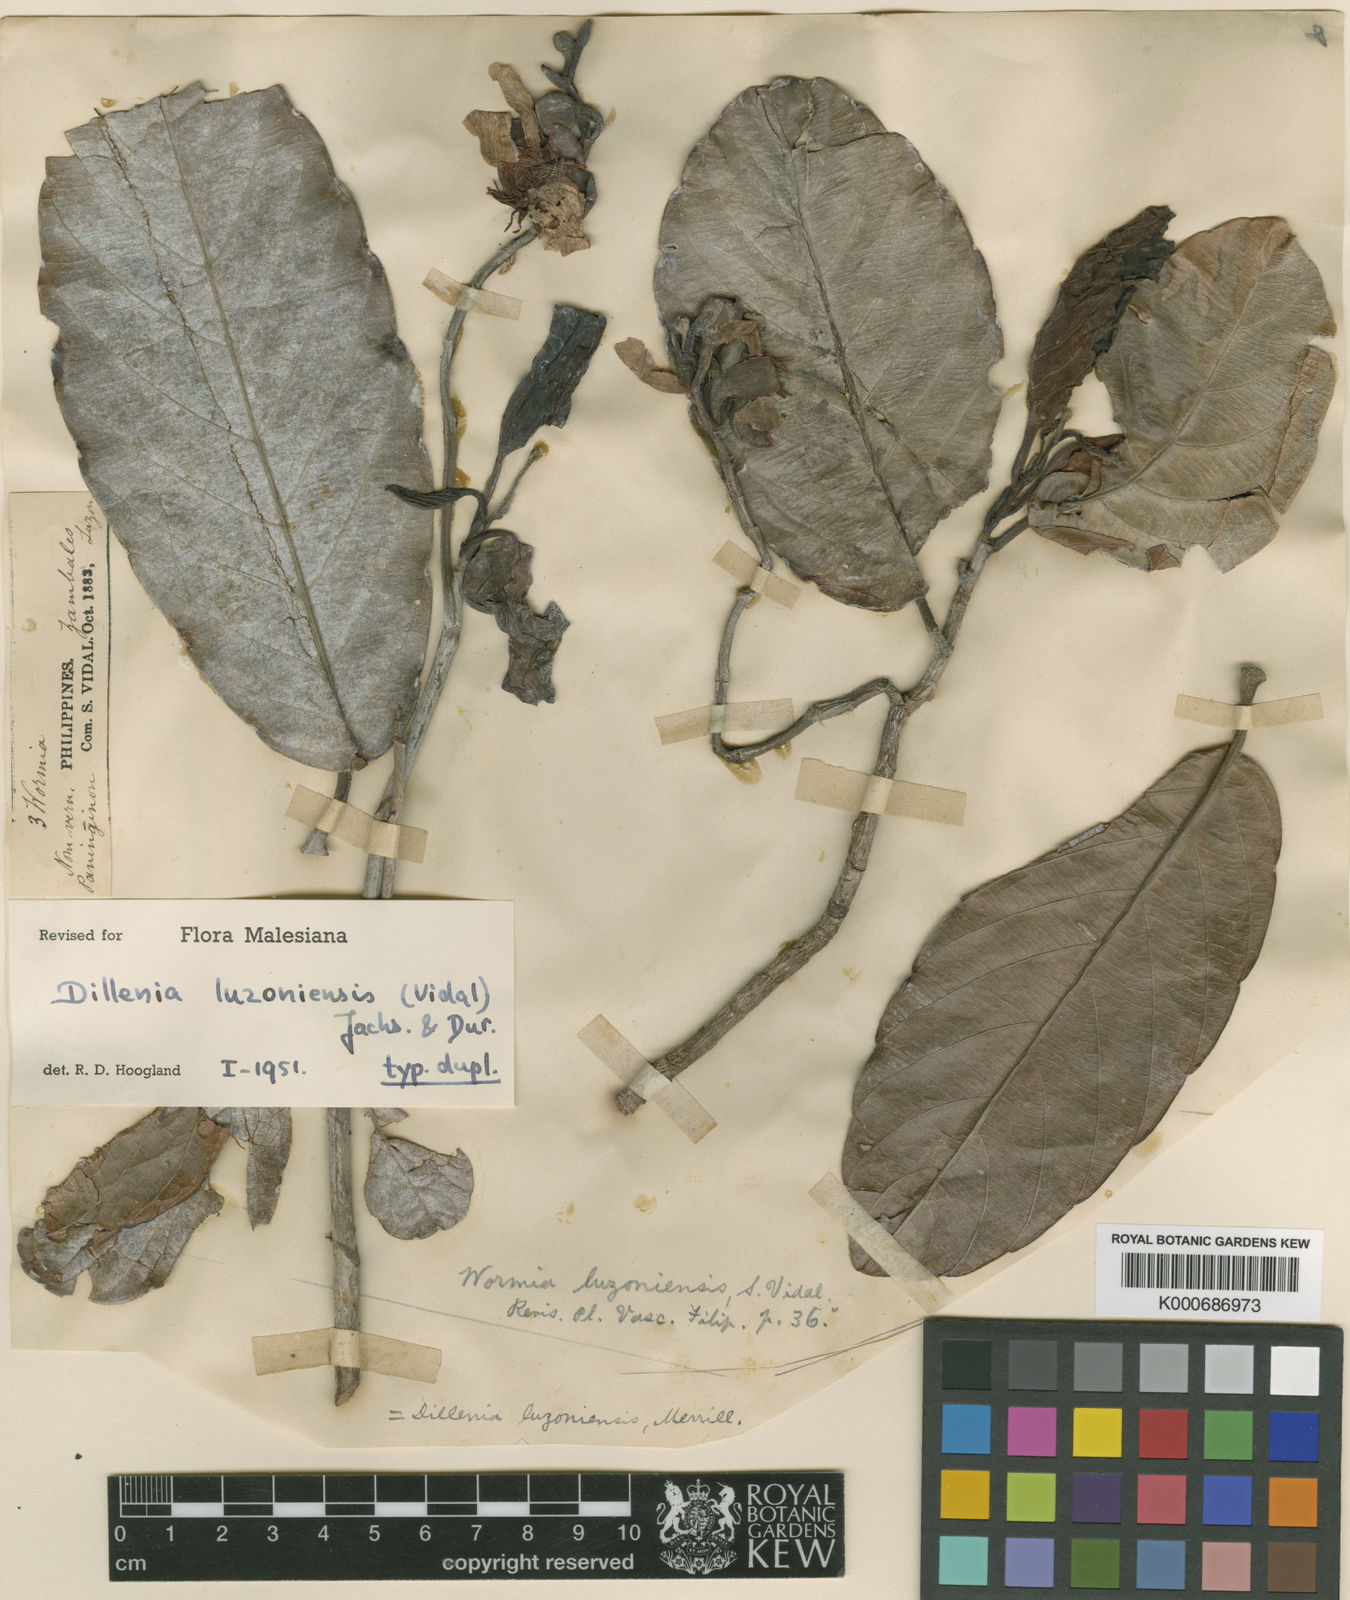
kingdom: Plantae
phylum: Tracheophyta
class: Magnoliopsida
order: Dilleniales
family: Dilleniaceae
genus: Dillenia
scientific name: Dillenia
